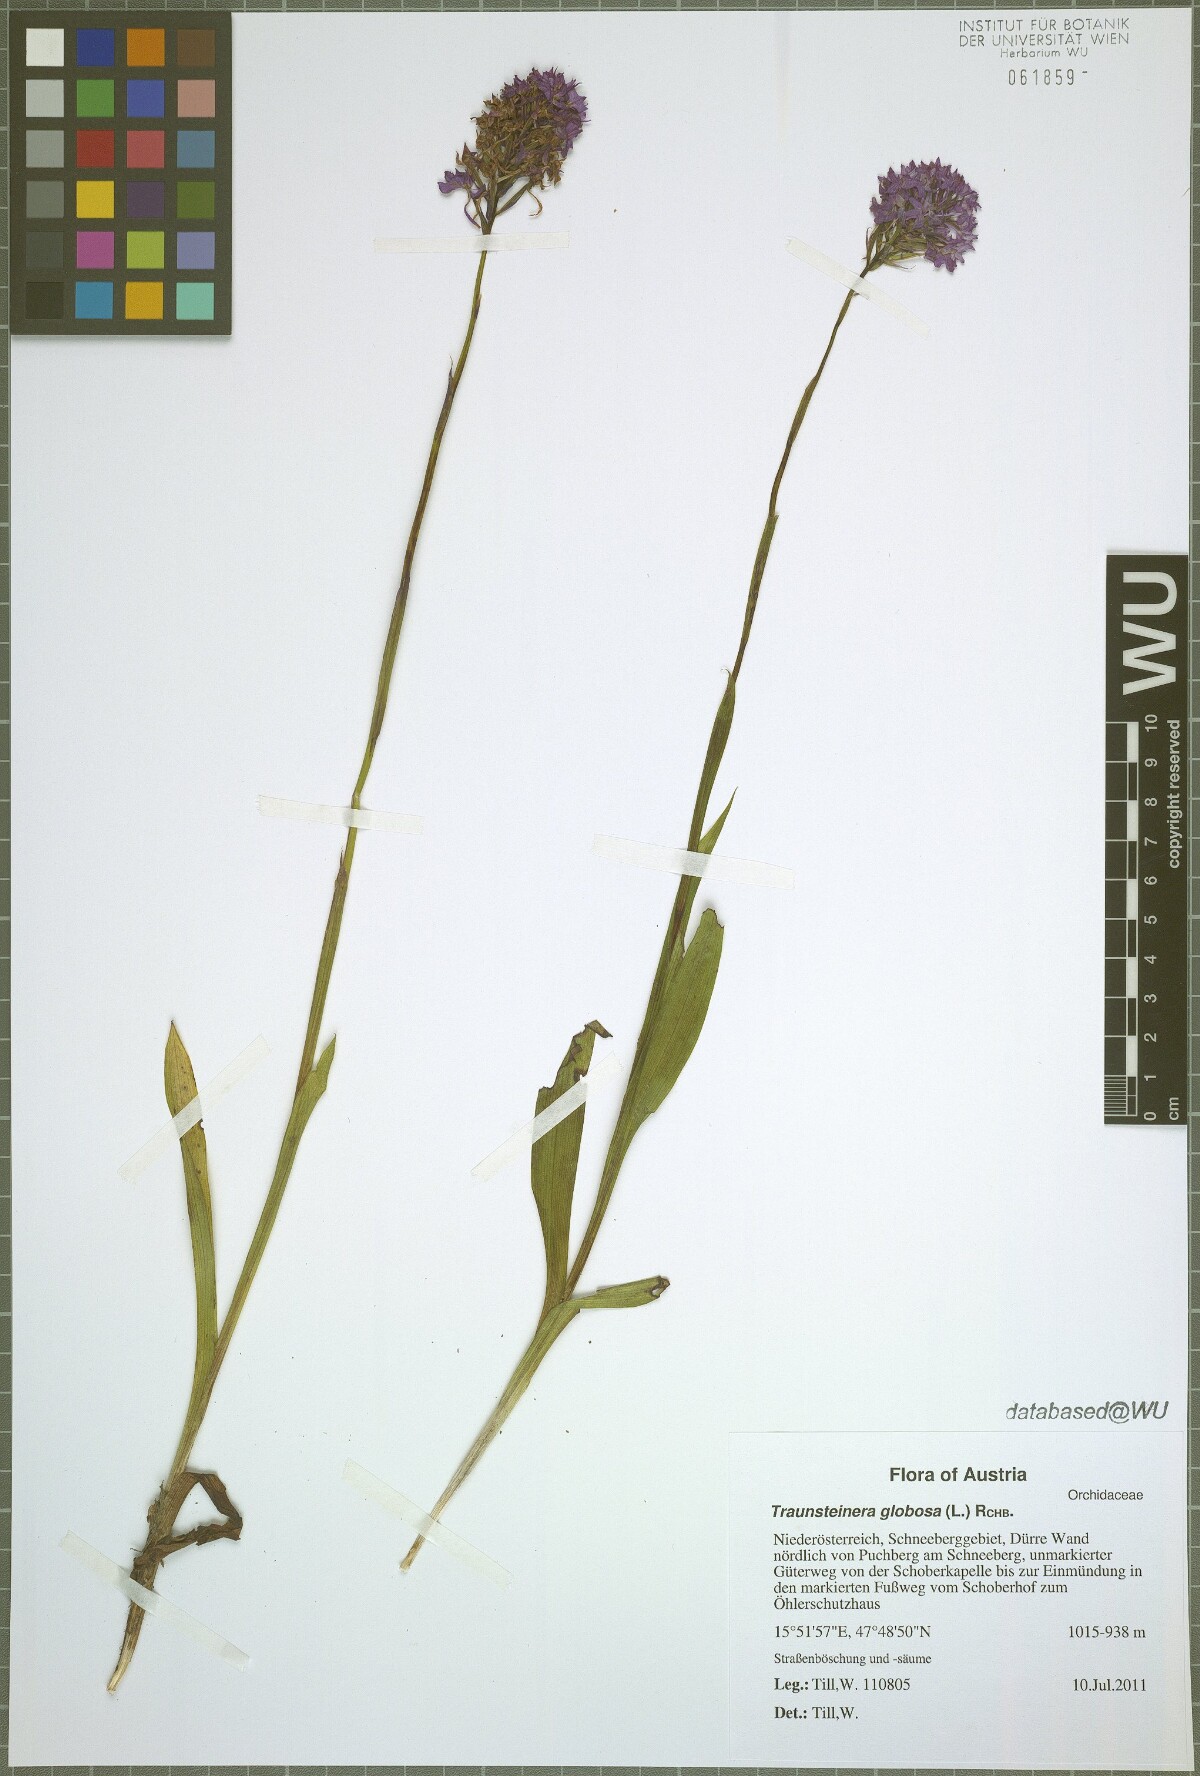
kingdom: Plantae
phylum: Tracheophyta
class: Liliopsida
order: Asparagales
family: Orchidaceae
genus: Traunsteinera
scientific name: Traunsteinera globosa
